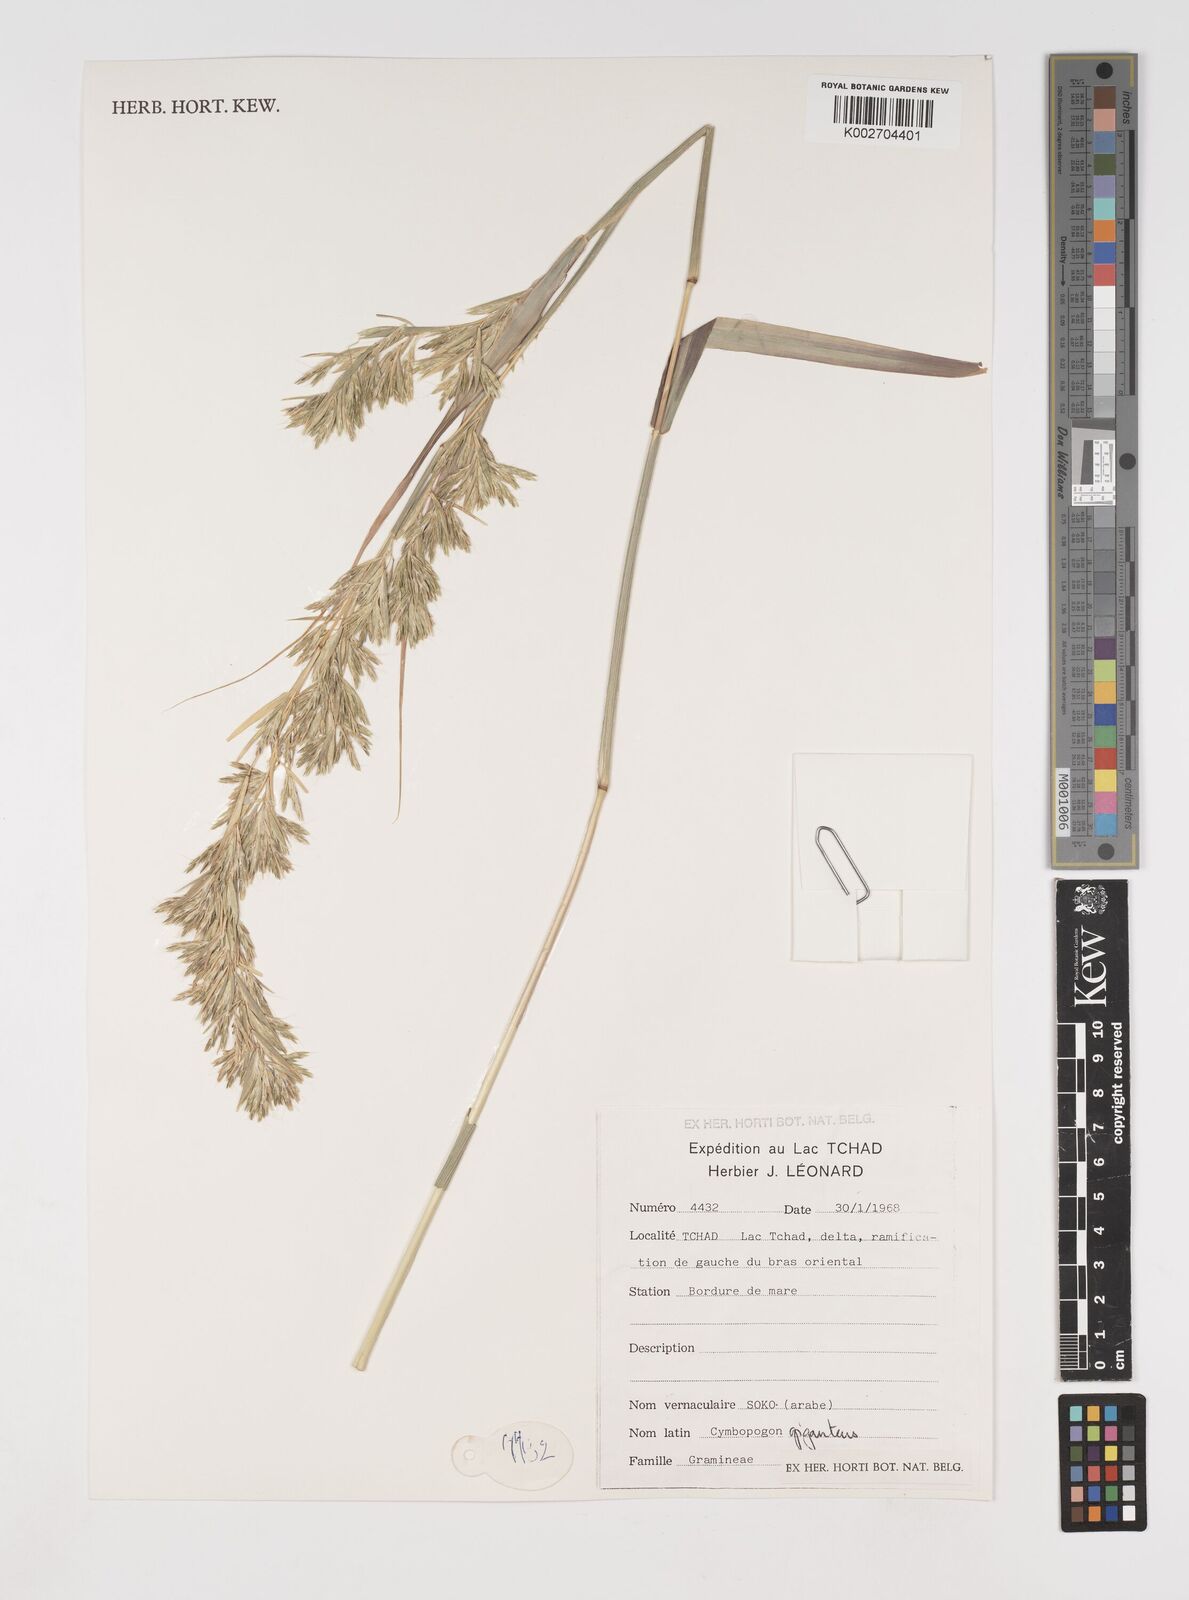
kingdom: Plantae
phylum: Tracheophyta
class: Liliopsida
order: Poales
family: Poaceae
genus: Cymbopogon
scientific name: Cymbopogon giganteus
